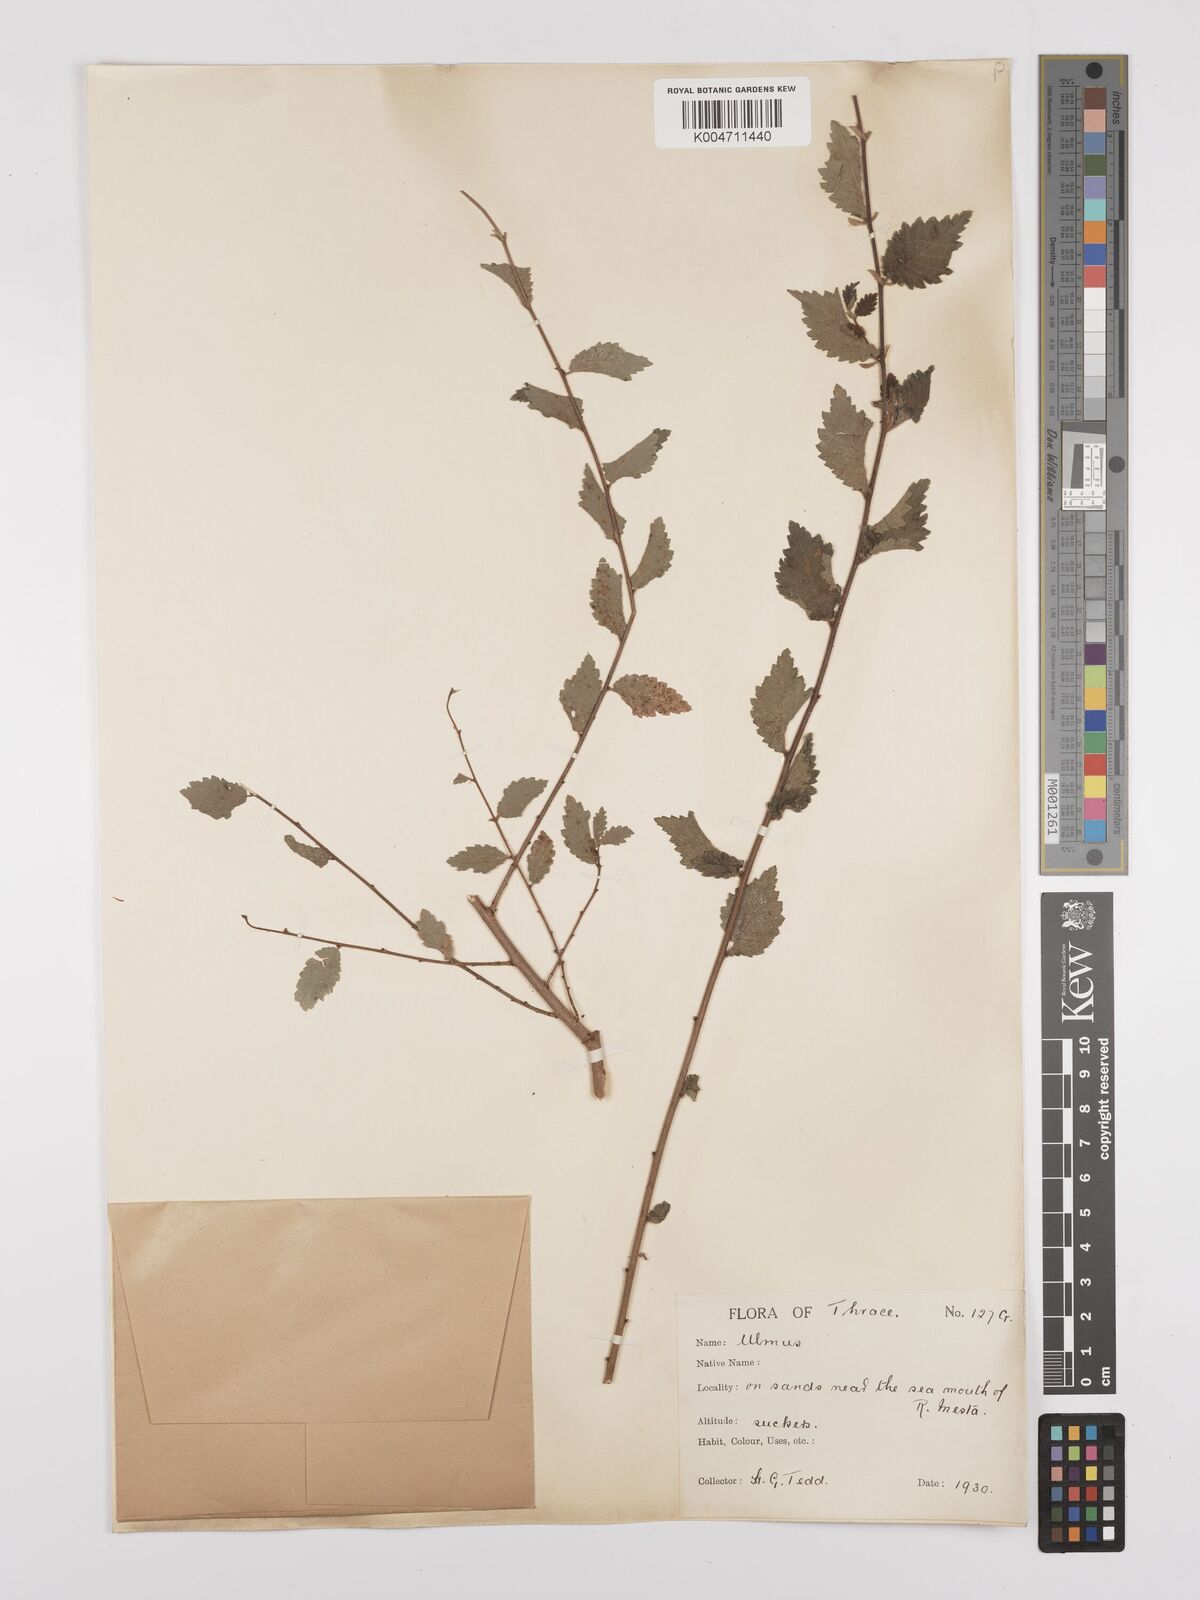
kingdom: Plantae
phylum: Tracheophyta
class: Magnoliopsida
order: Rosales
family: Ulmaceae
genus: Ulmus
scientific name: Ulmus
